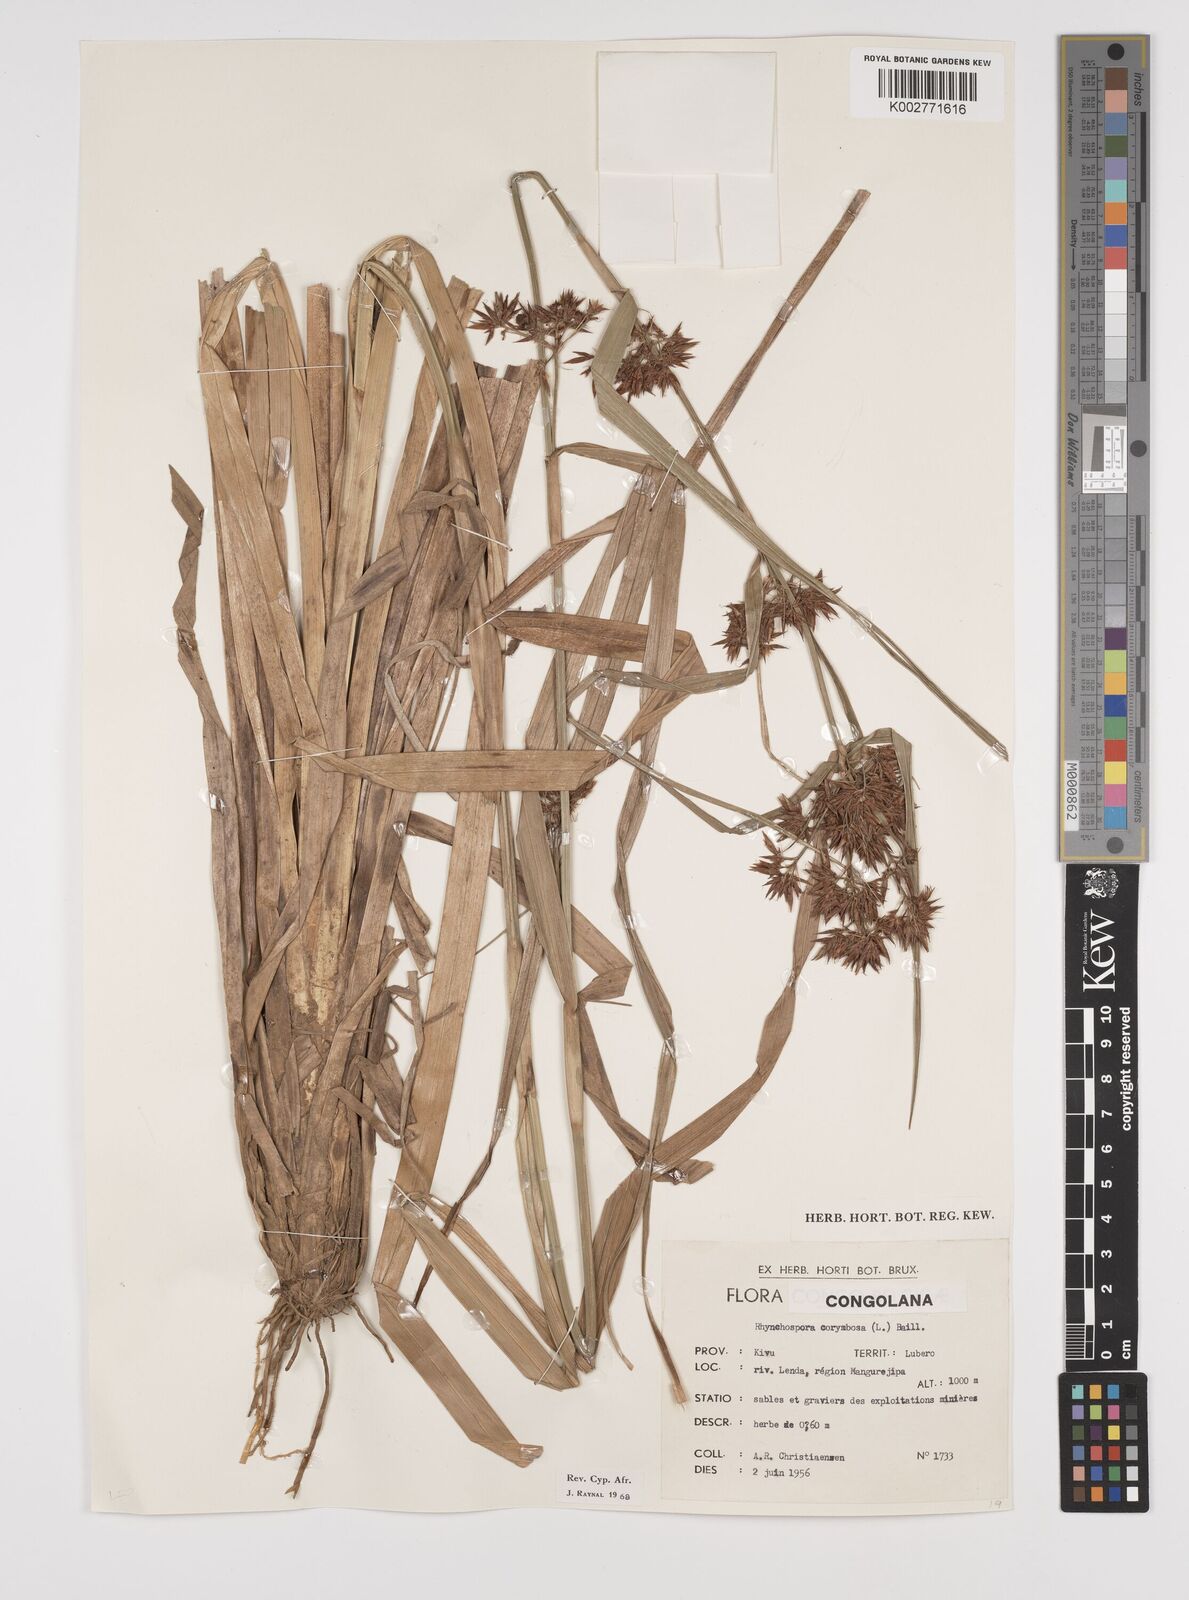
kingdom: Plantae
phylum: Tracheophyta
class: Liliopsida
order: Poales
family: Cyperaceae
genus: Rhynchospora
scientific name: Rhynchospora corymbosa
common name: Golden beak sedge
